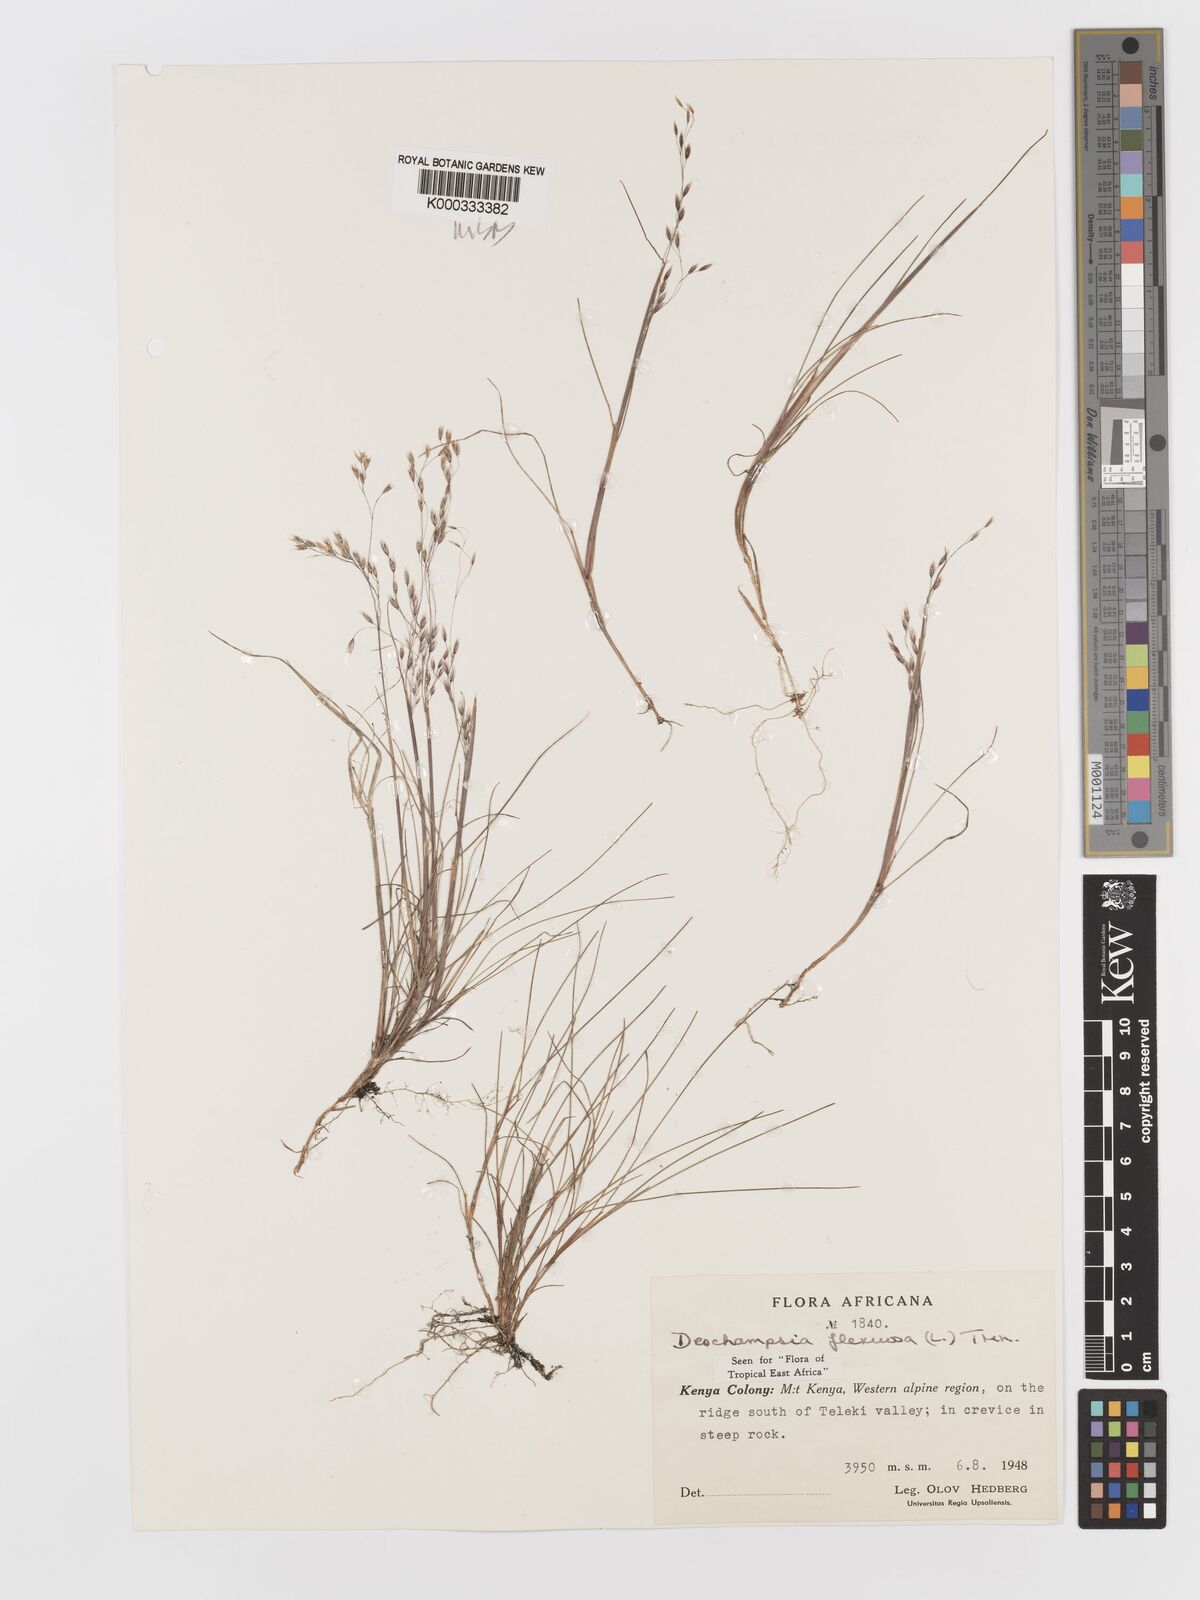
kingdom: Plantae
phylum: Tracheophyta
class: Liliopsida
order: Poales
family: Poaceae
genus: Avenella
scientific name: Avenella flexuosa
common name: Wavy hairgrass
